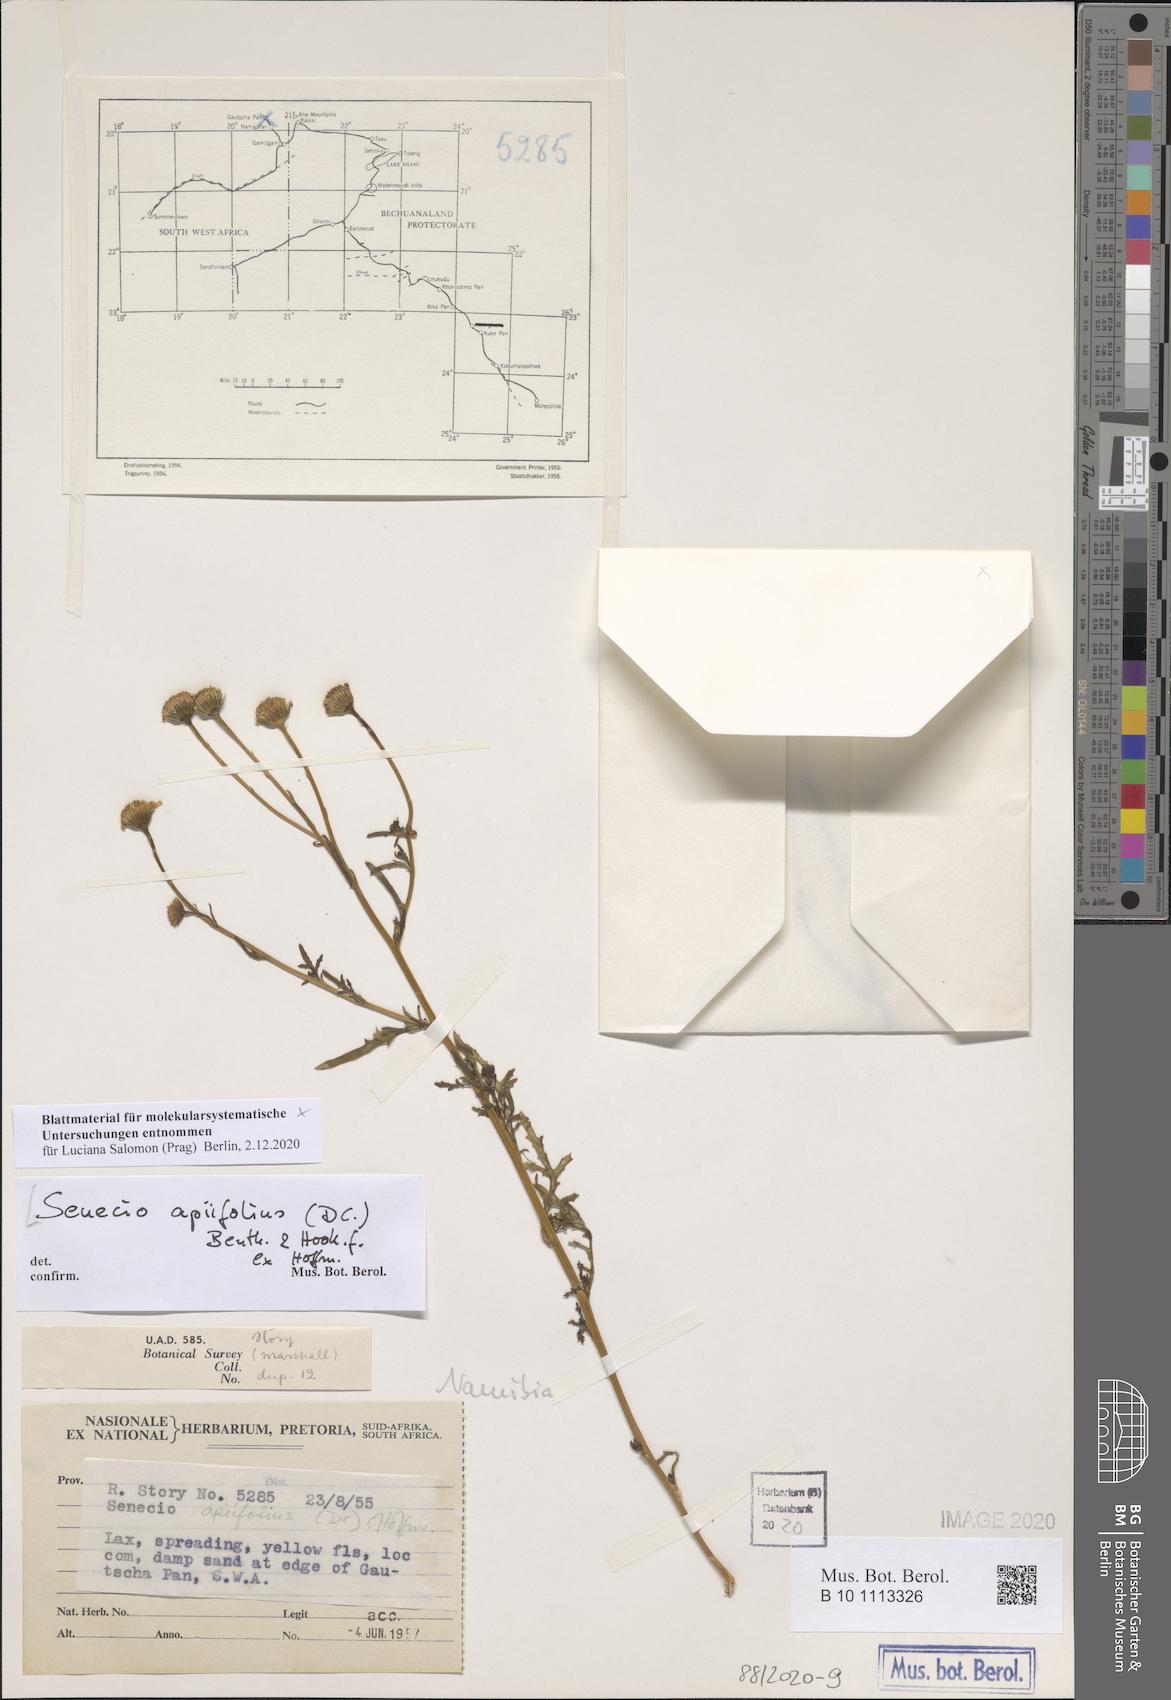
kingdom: Plantae
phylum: Tracheophyta
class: Magnoliopsida
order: Asterales
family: Asteraceae
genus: Mesogramma
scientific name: Mesogramma apiifolium
